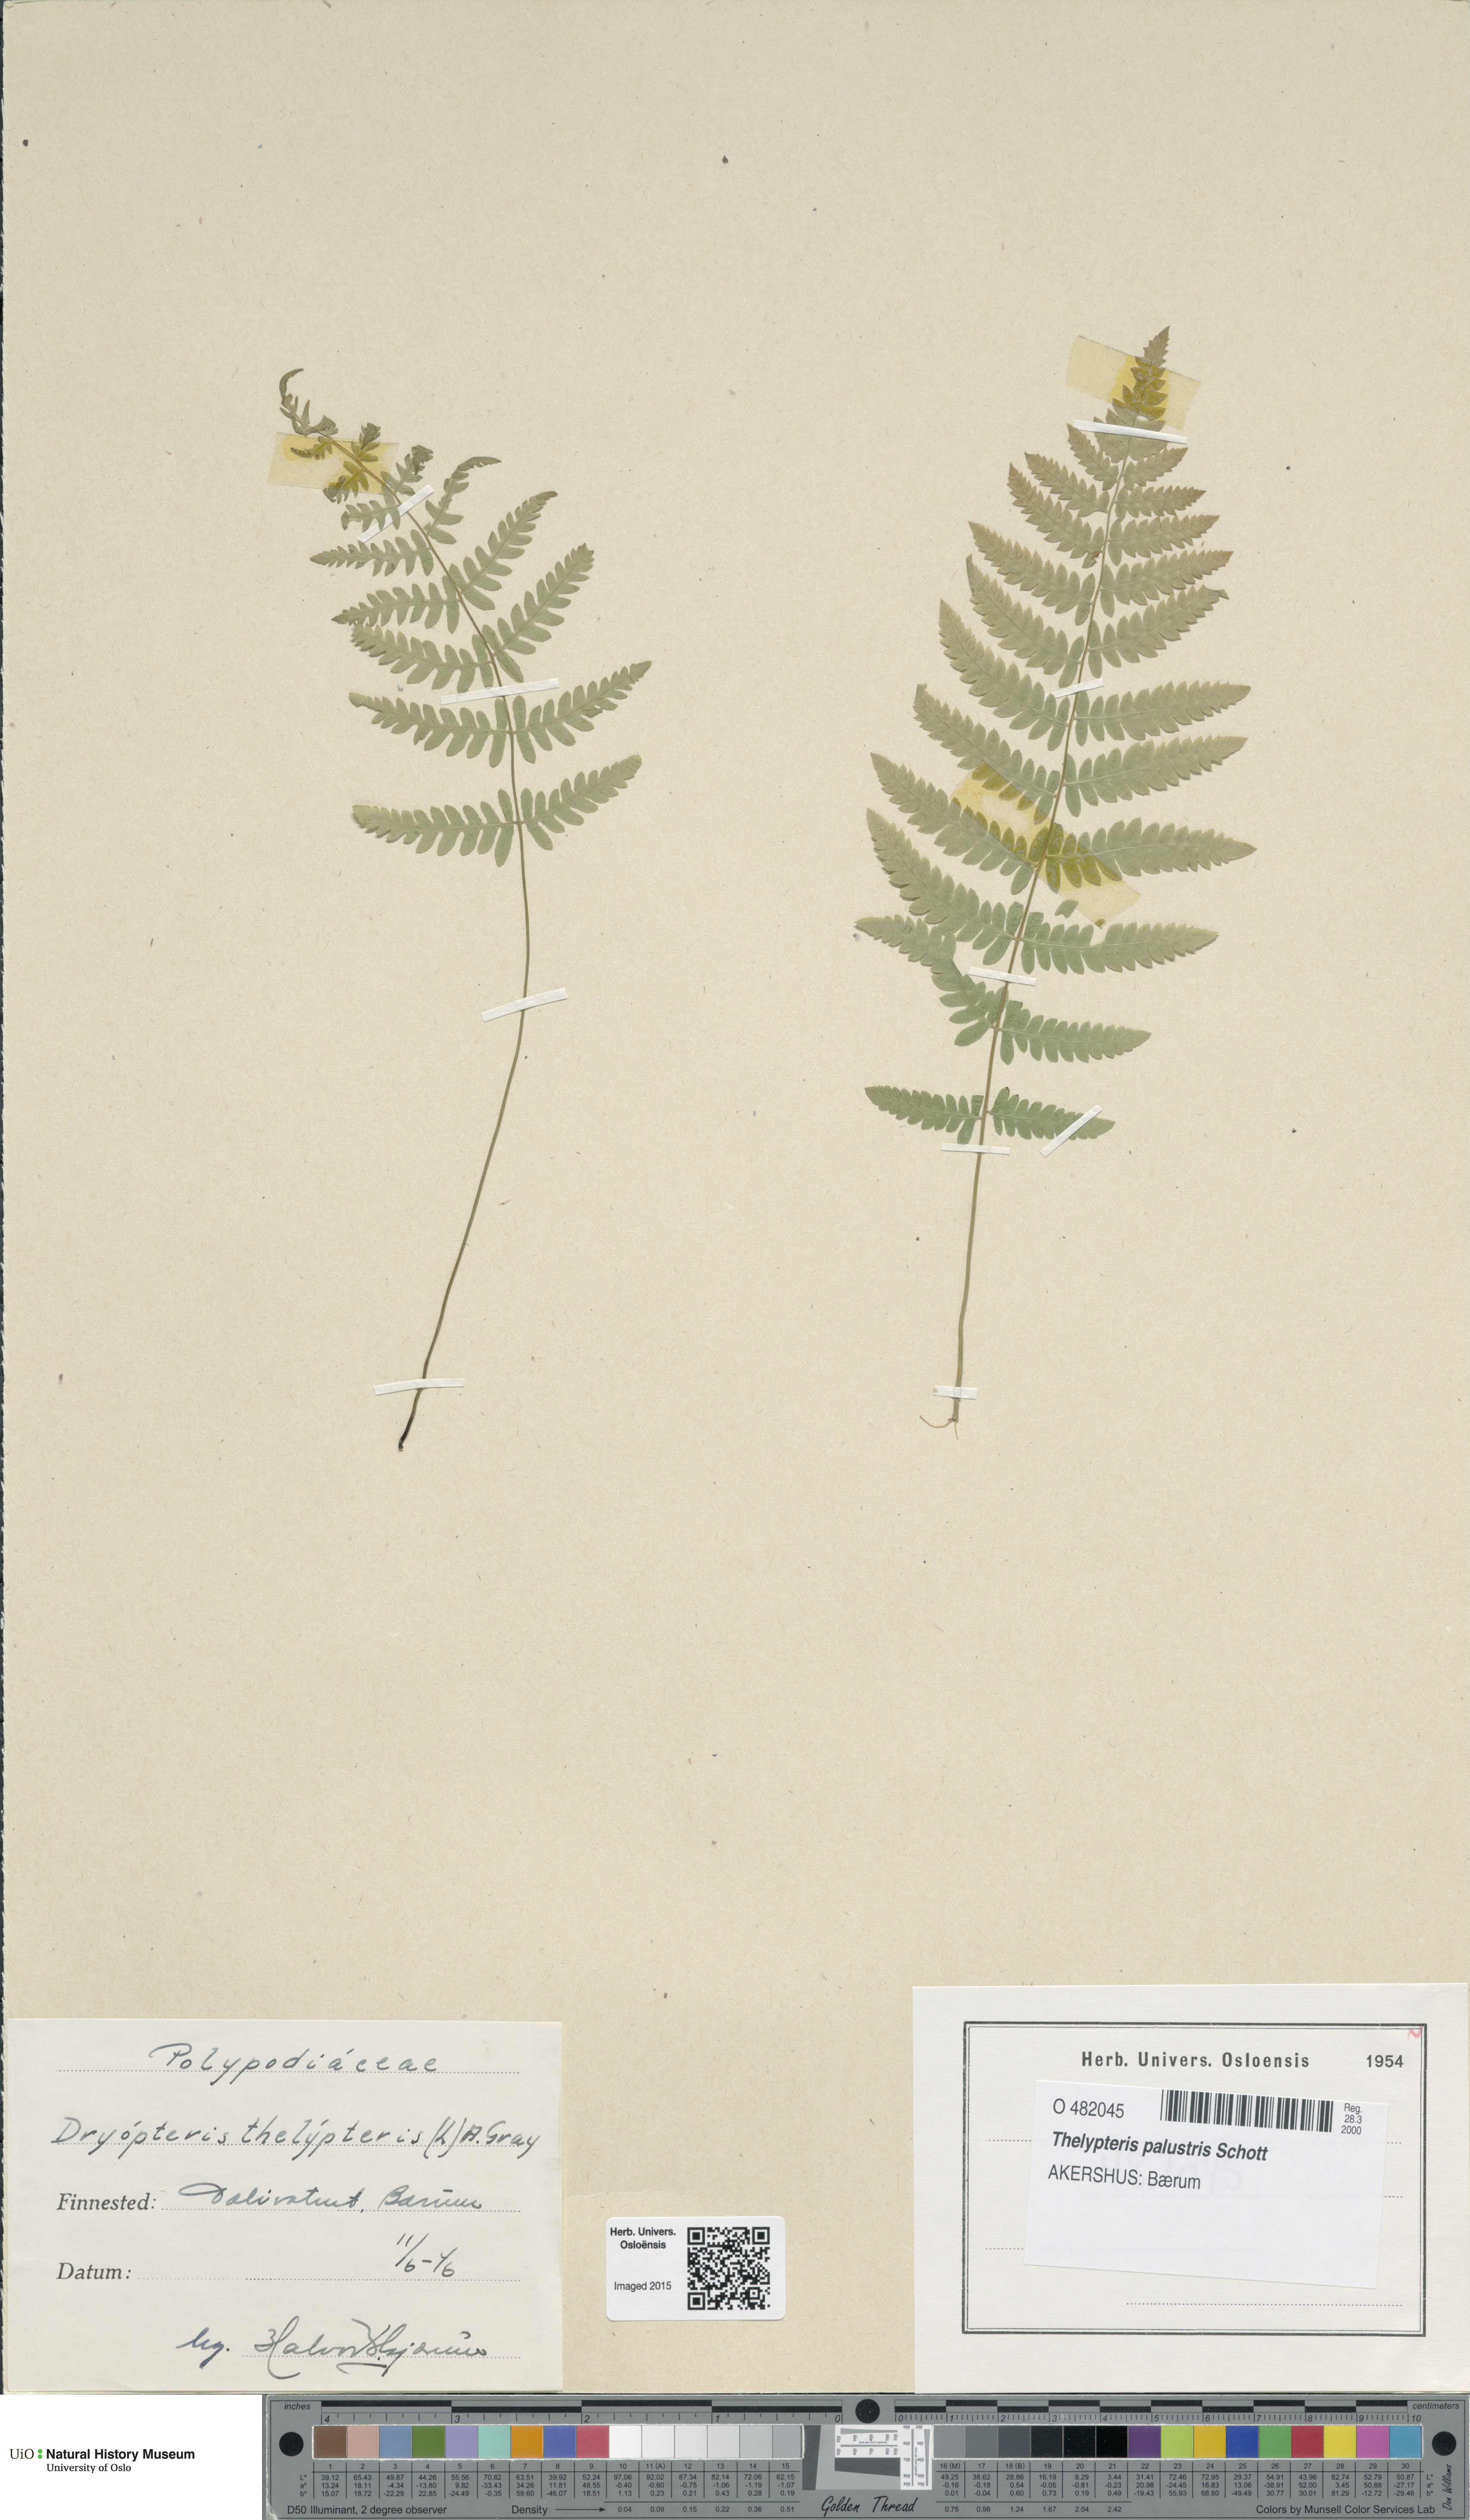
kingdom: Plantae
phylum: Tracheophyta
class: Polypodiopsida
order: Polypodiales
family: Thelypteridaceae
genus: Thelypteris
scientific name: Thelypteris palustris
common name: Marsh fern
